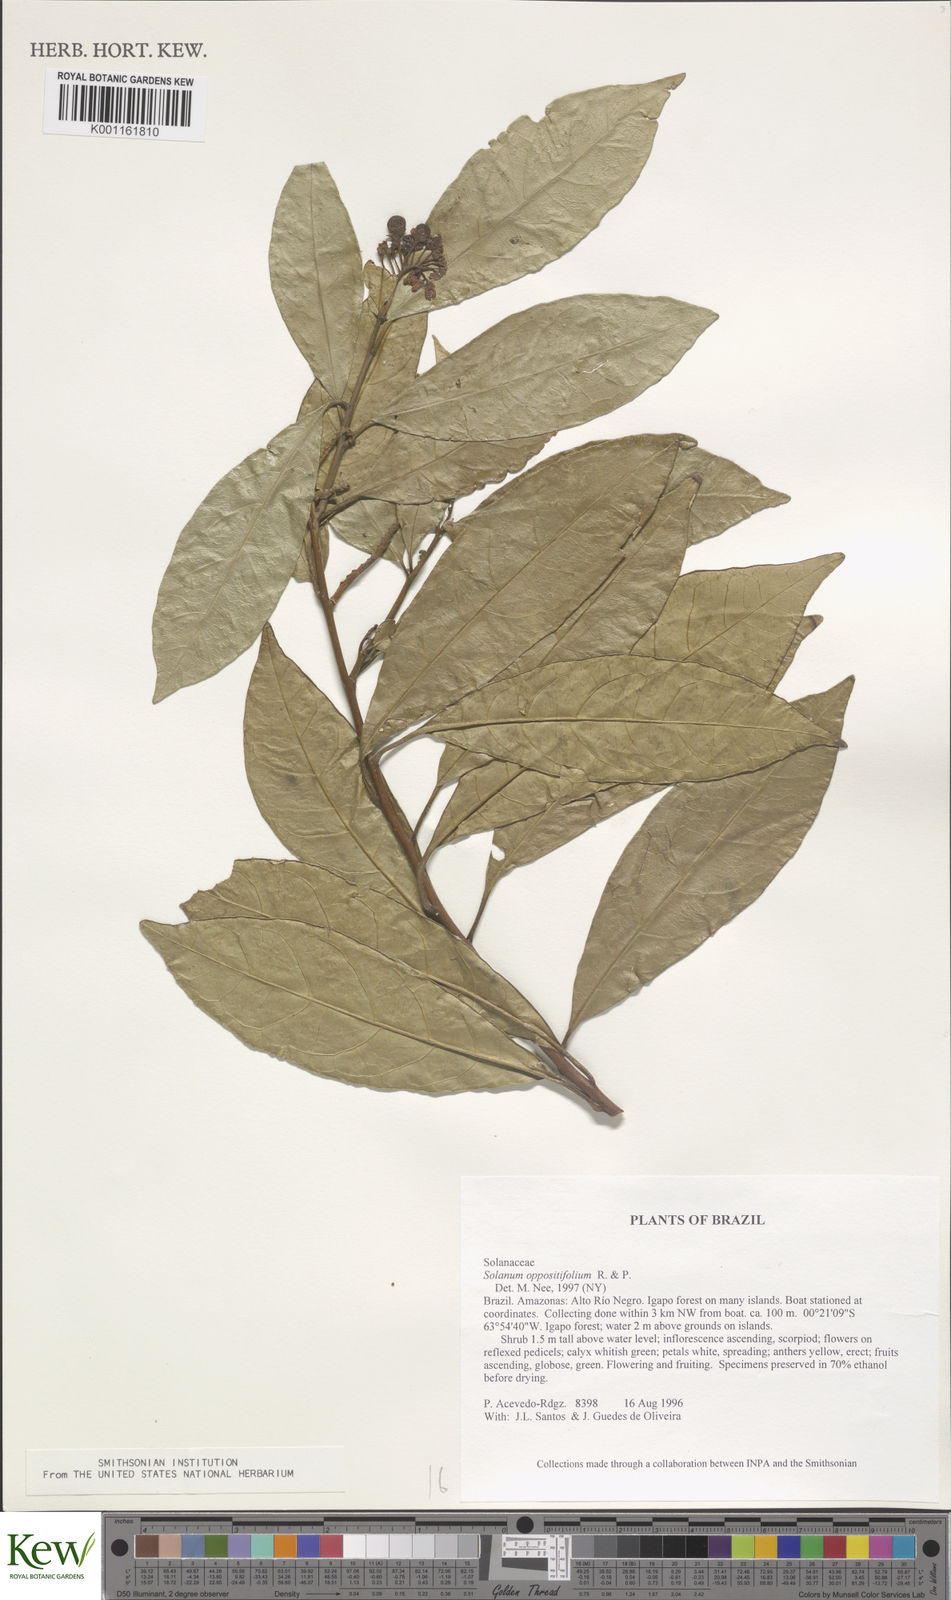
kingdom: Plantae
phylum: Tracheophyta
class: Magnoliopsida
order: Solanales
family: Solanaceae
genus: Solanum
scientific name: Solanum oppositifolium
